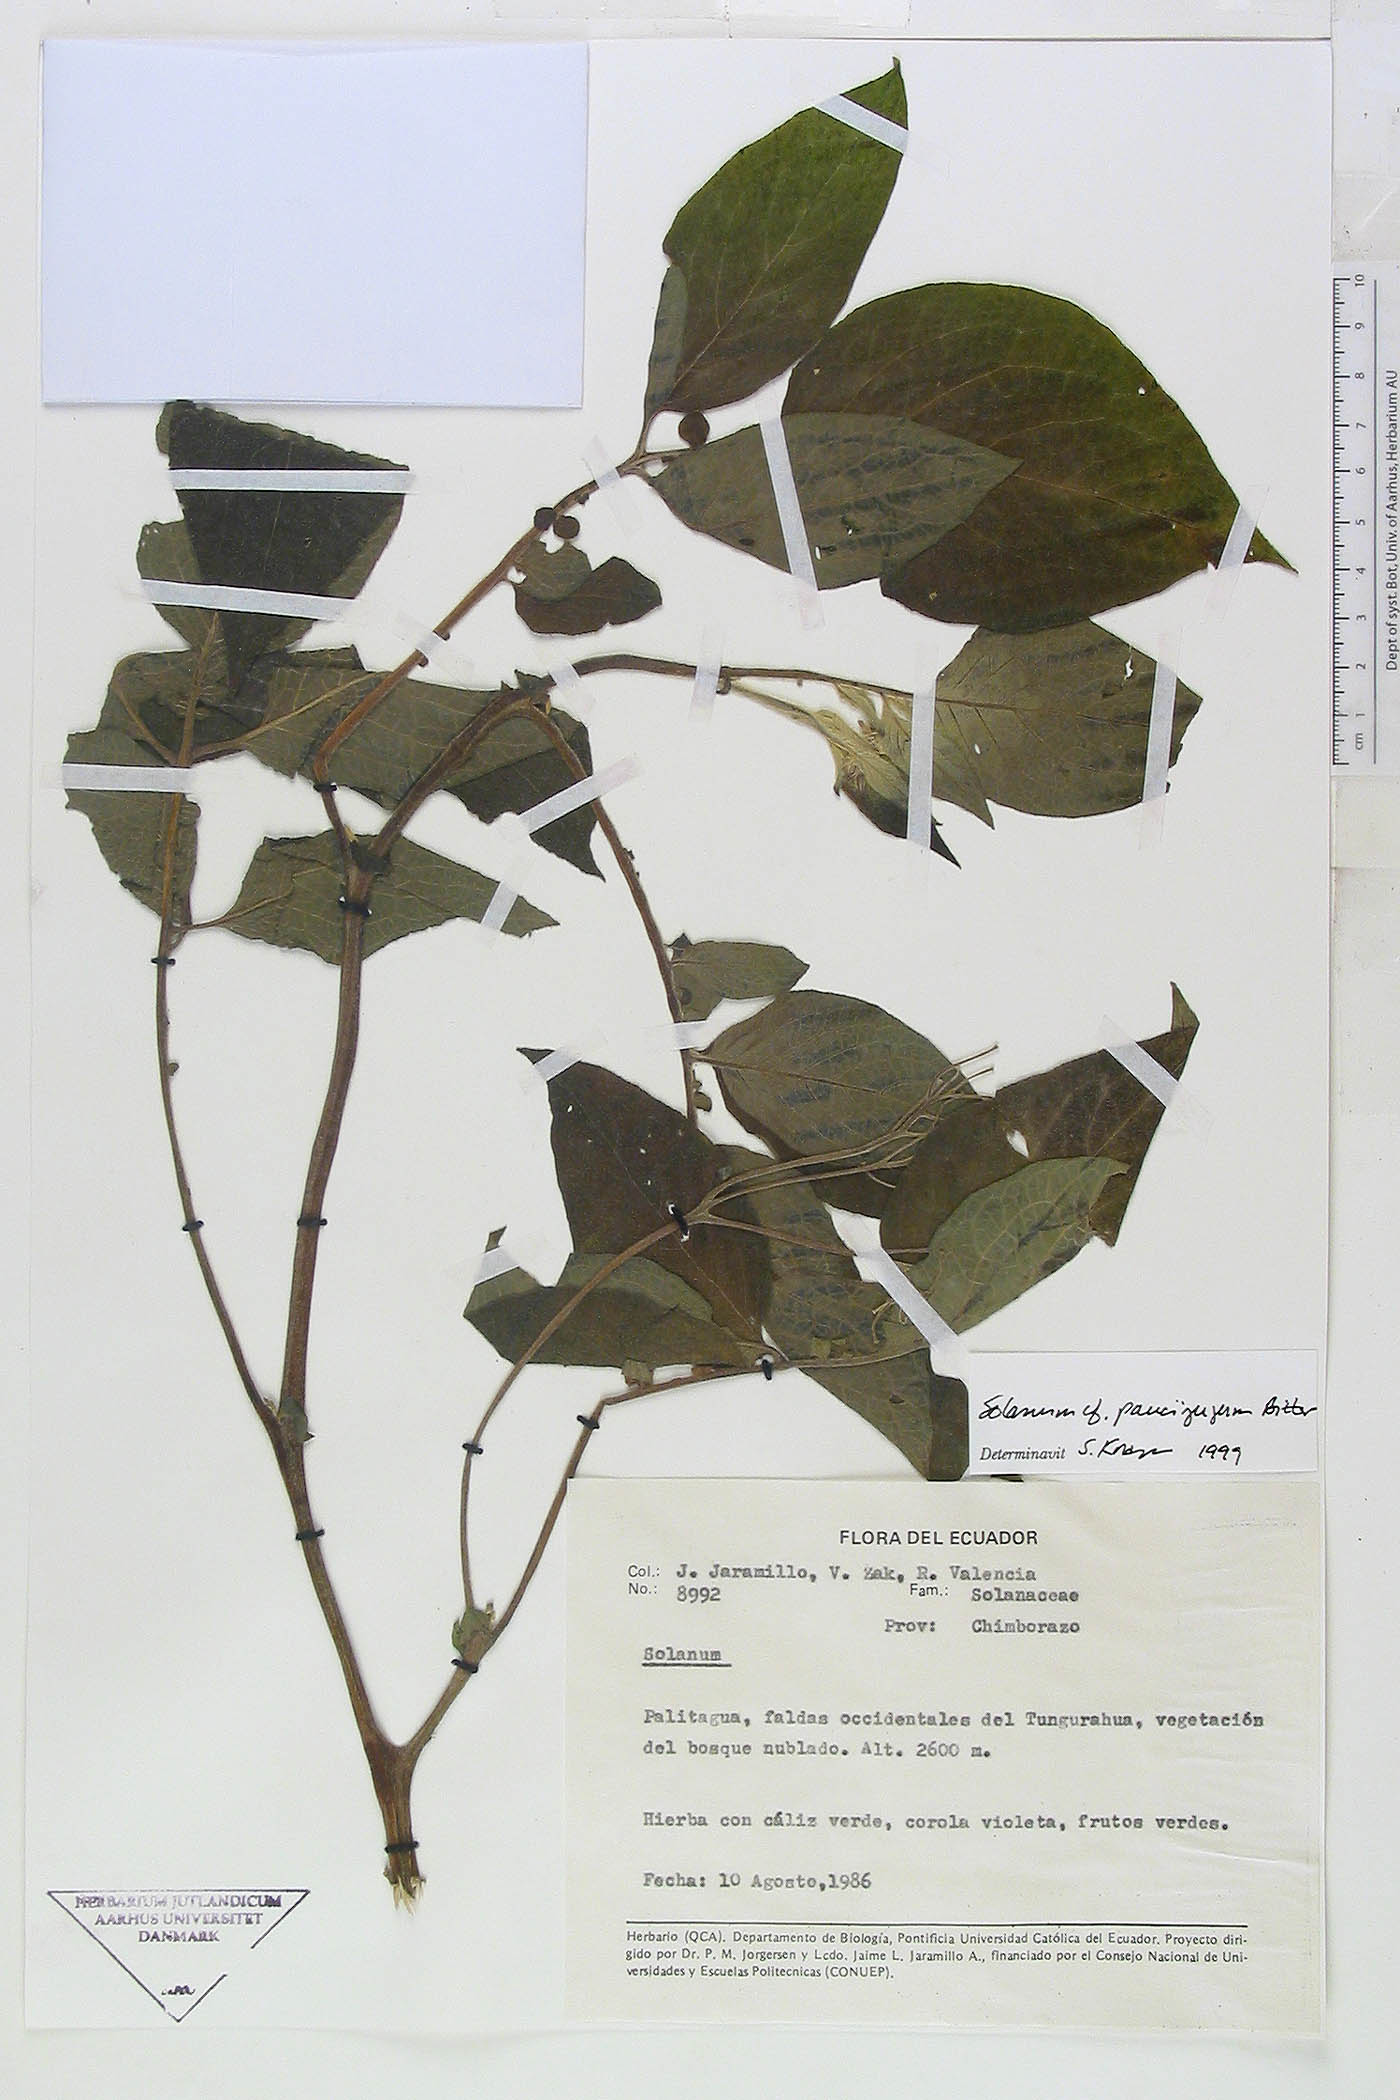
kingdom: Plantae
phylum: Tracheophyta
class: Magnoliopsida
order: Solanales
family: Solanaceae
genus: Solanum
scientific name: Solanum andreanum
